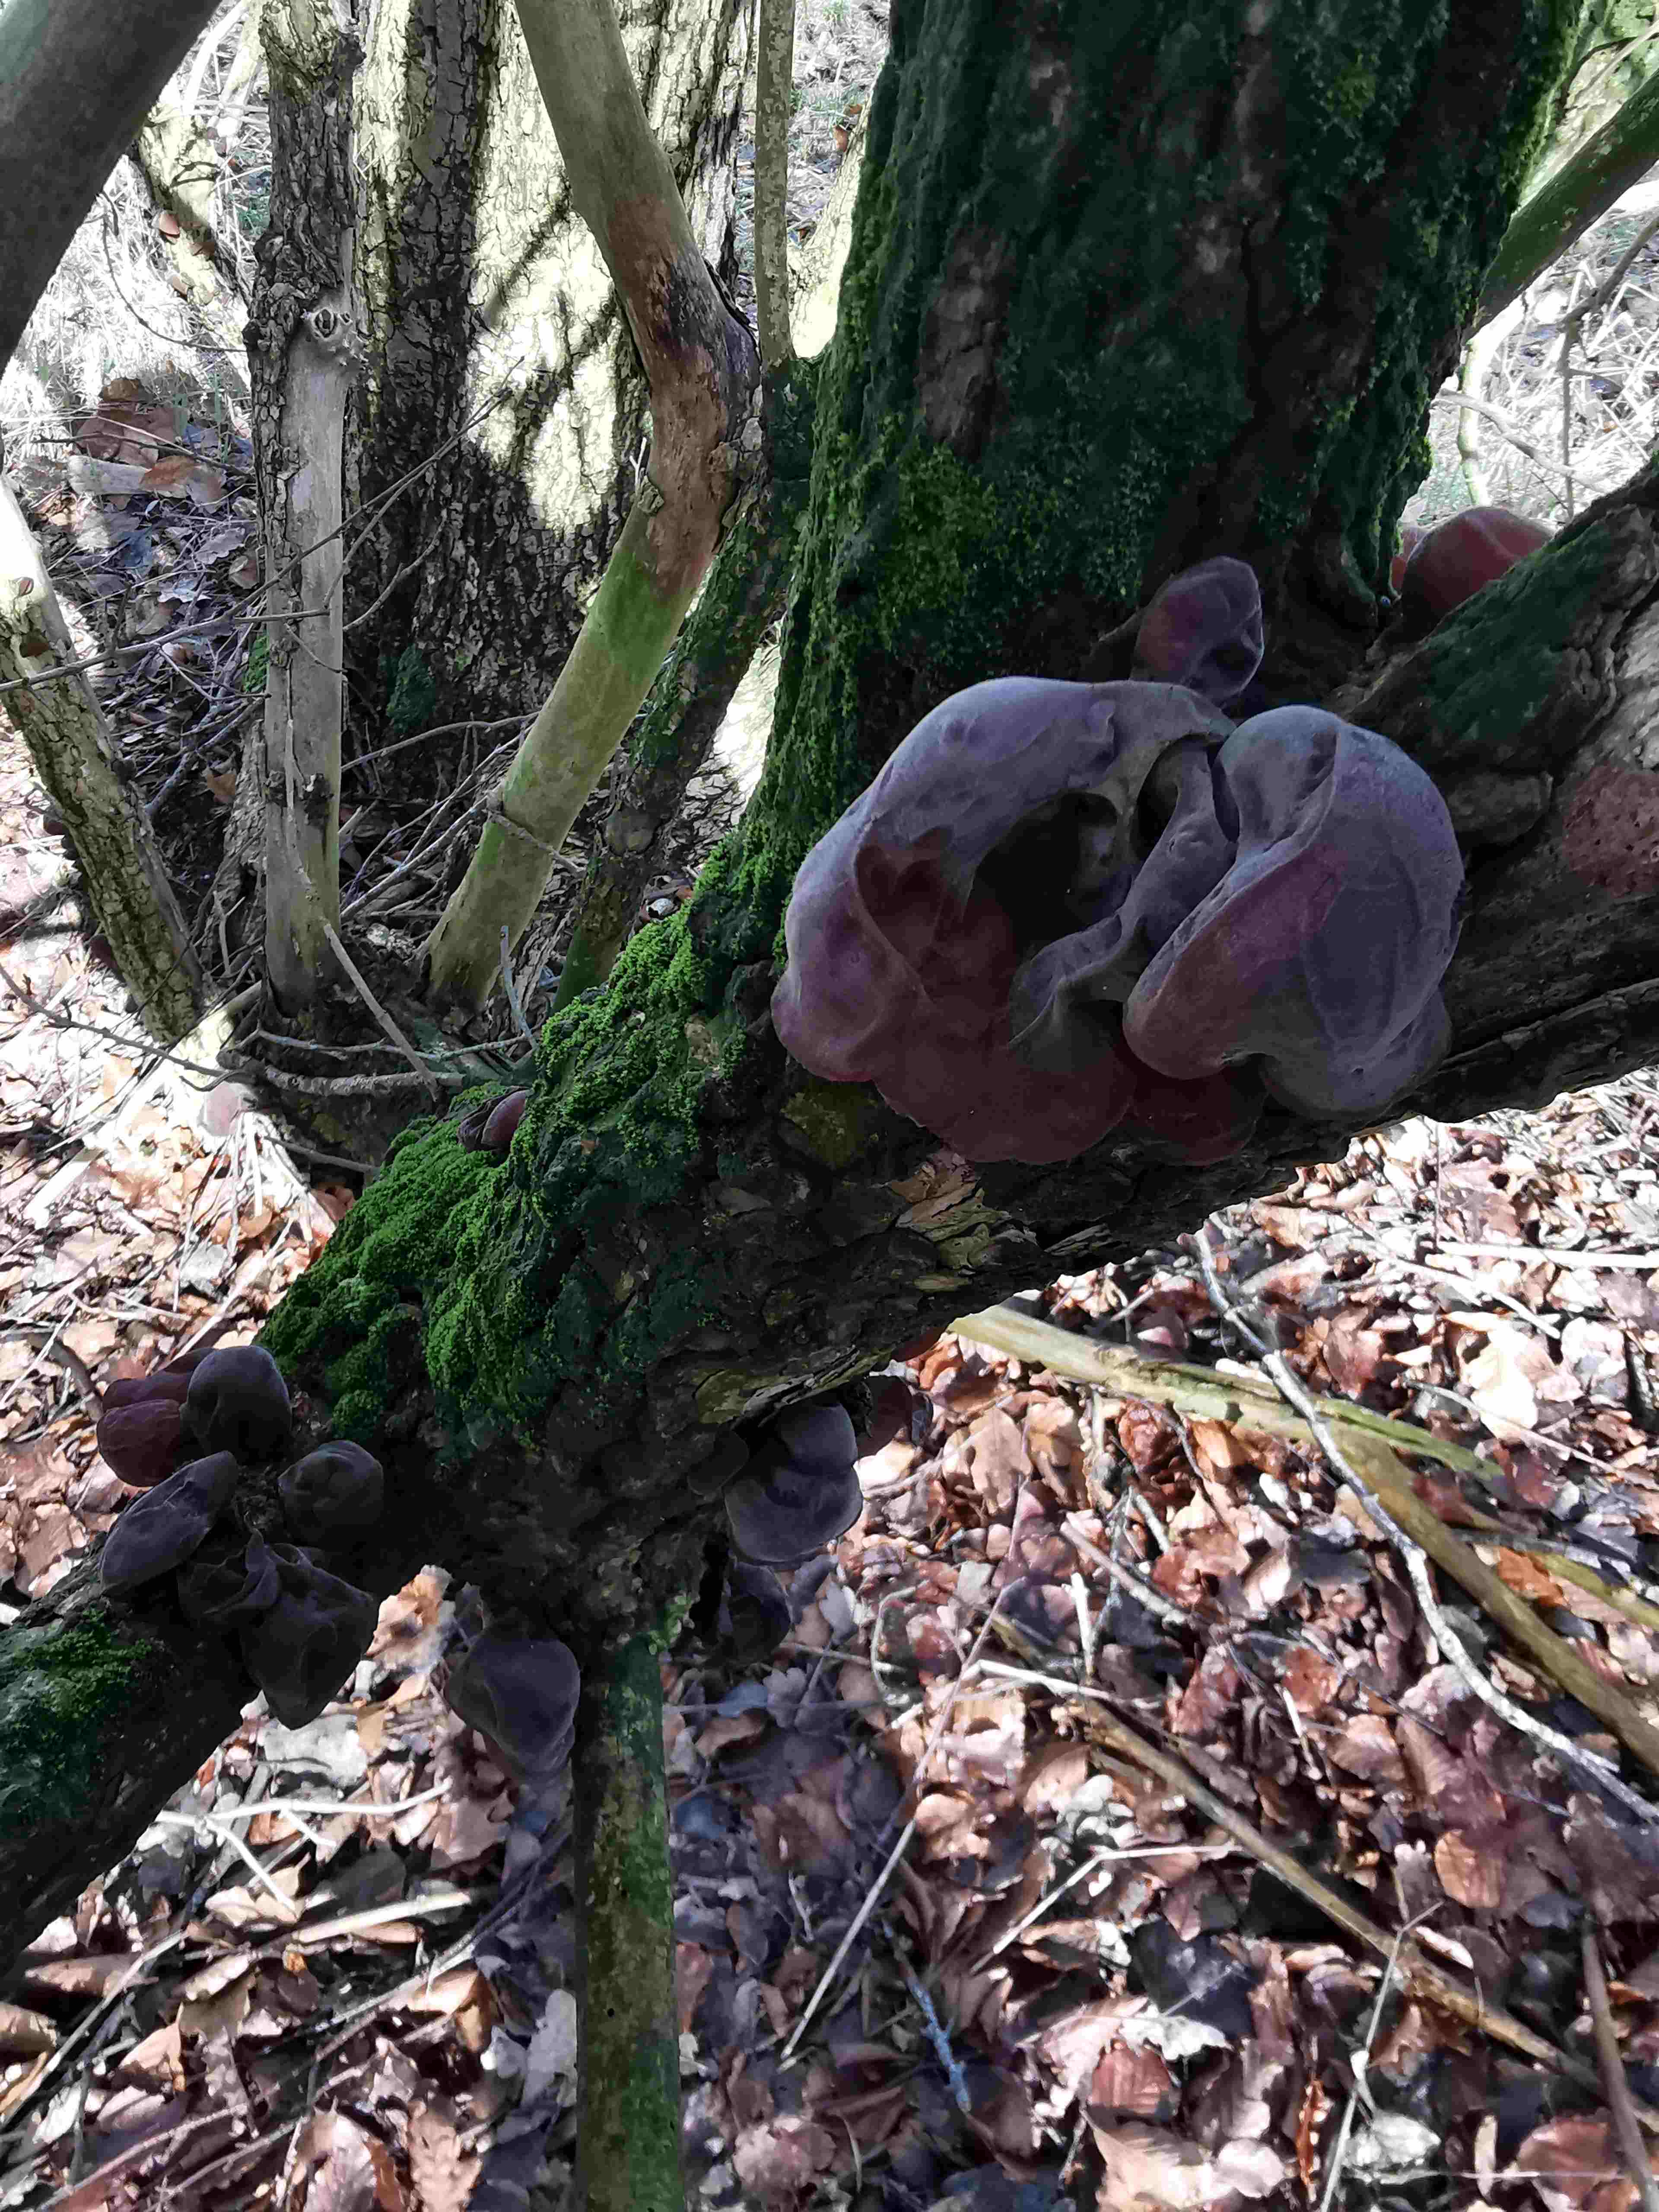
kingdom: Fungi
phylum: Basidiomycota
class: Agaricomycetes
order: Auriculariales
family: Auriculariaceae
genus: Auricularia
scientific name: Auricularia auricula-judae
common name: almindelig judasøre
